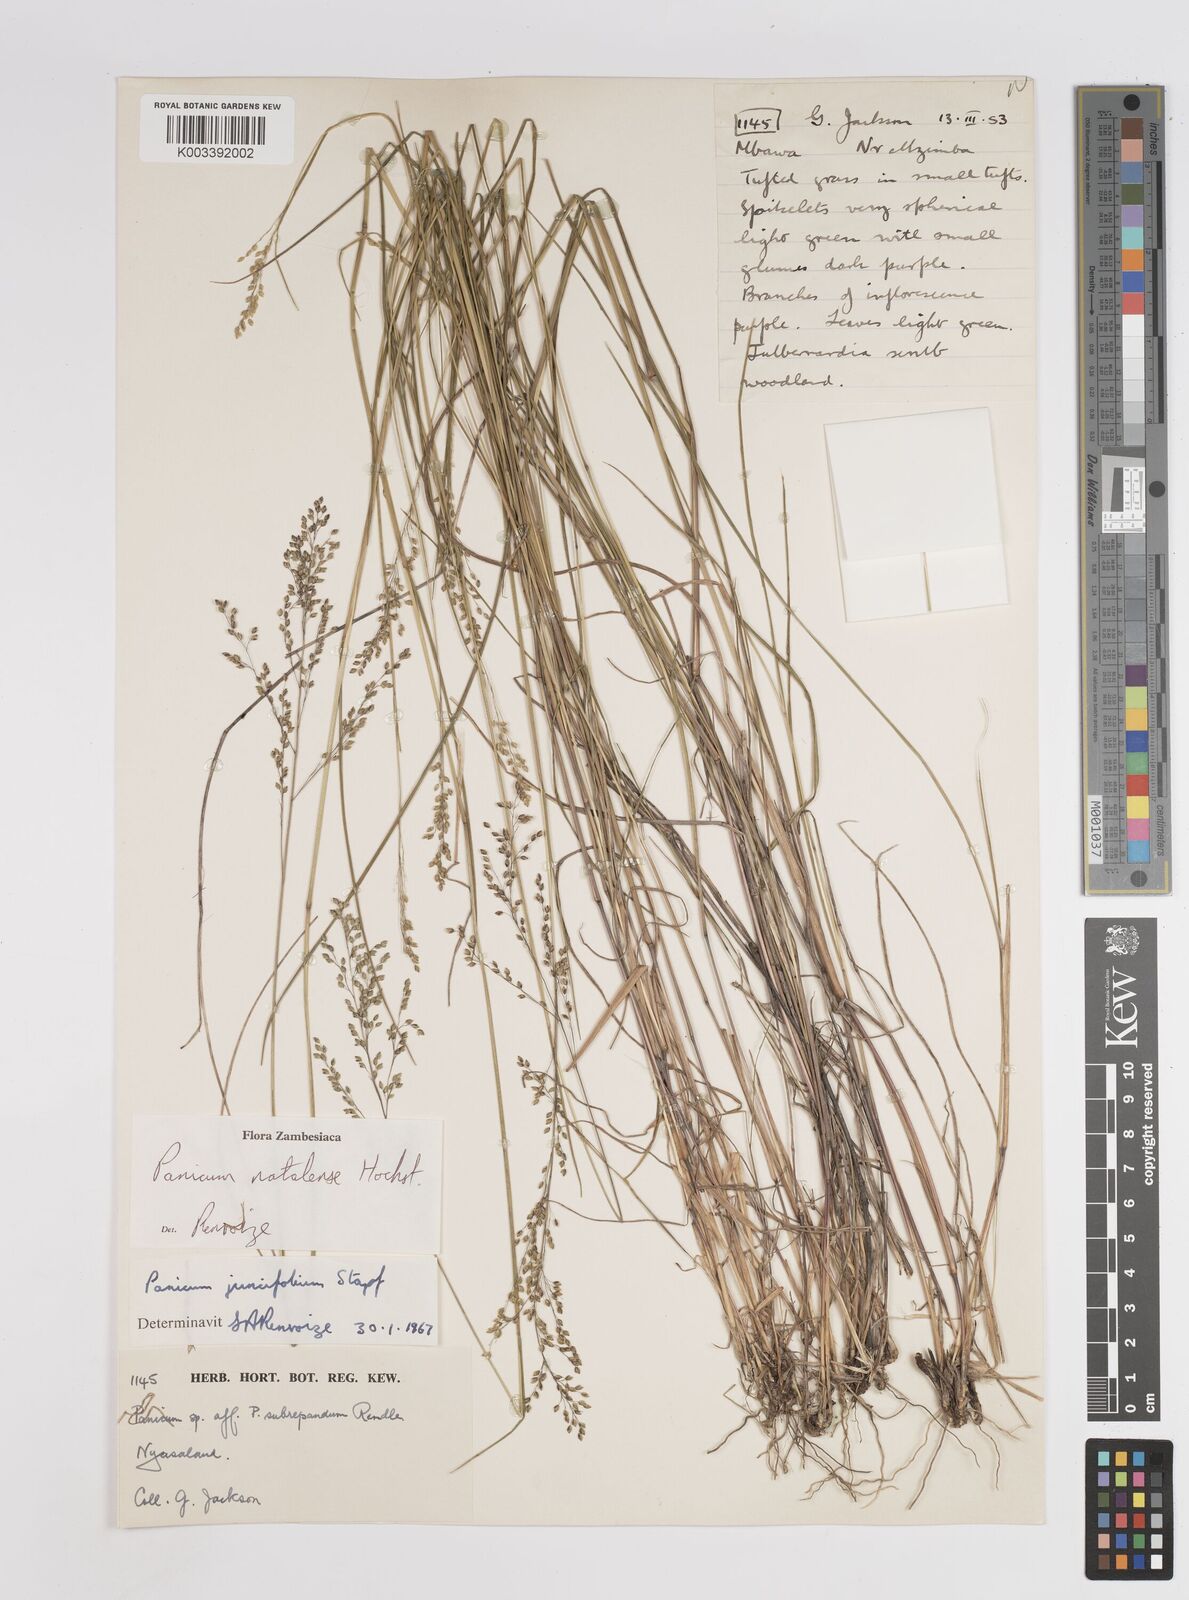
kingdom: Plantae
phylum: Tracheophyta
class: Liliopsida
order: Poales
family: Poaceae
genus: Trichanthecium
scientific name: Trichanthecium natalense
